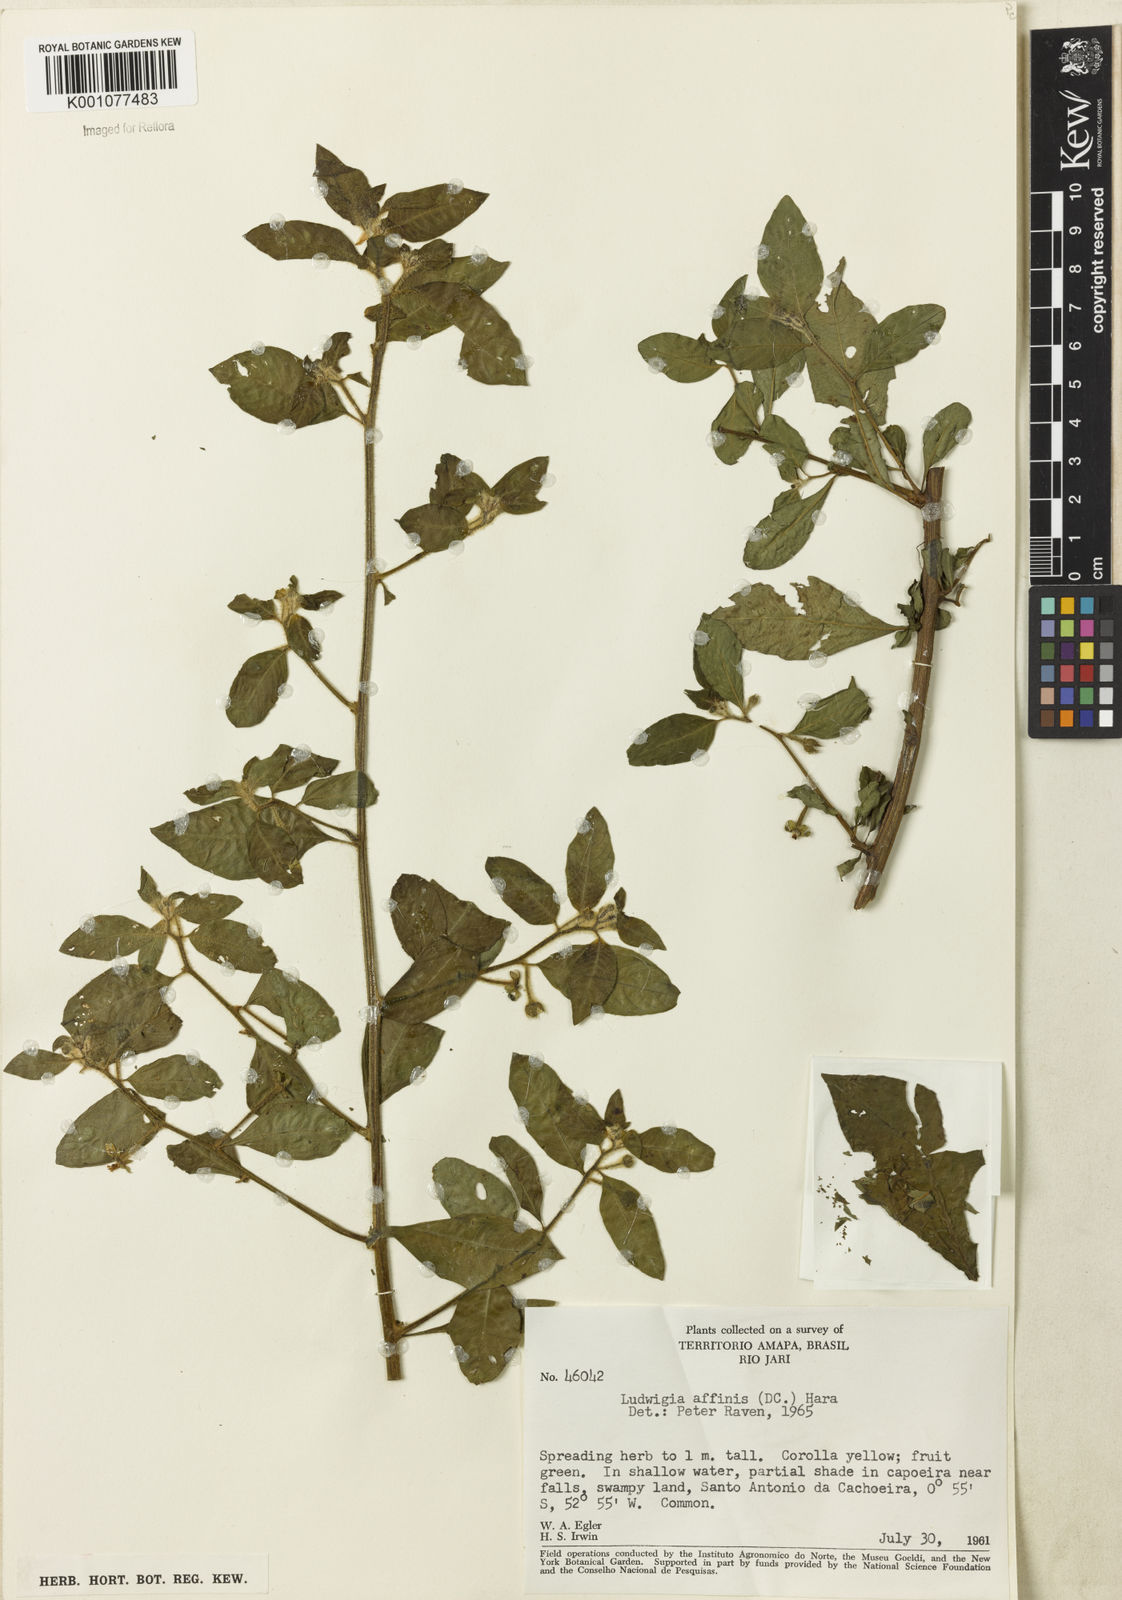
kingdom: Plantae
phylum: Tracheophyta
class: Magnoliopsida
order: Myrtales
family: Onagraceae
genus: Ludwigia
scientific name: Ludwigia affinis
